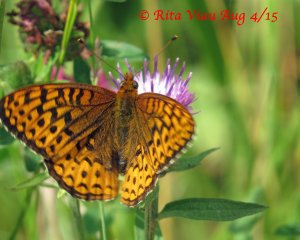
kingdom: Animalia
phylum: Arthropoda
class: Insecta
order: Lepidoptera
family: Nymphalidae
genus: Speyeria
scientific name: Speyeria atlantis
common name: Atlantis Fritillary
